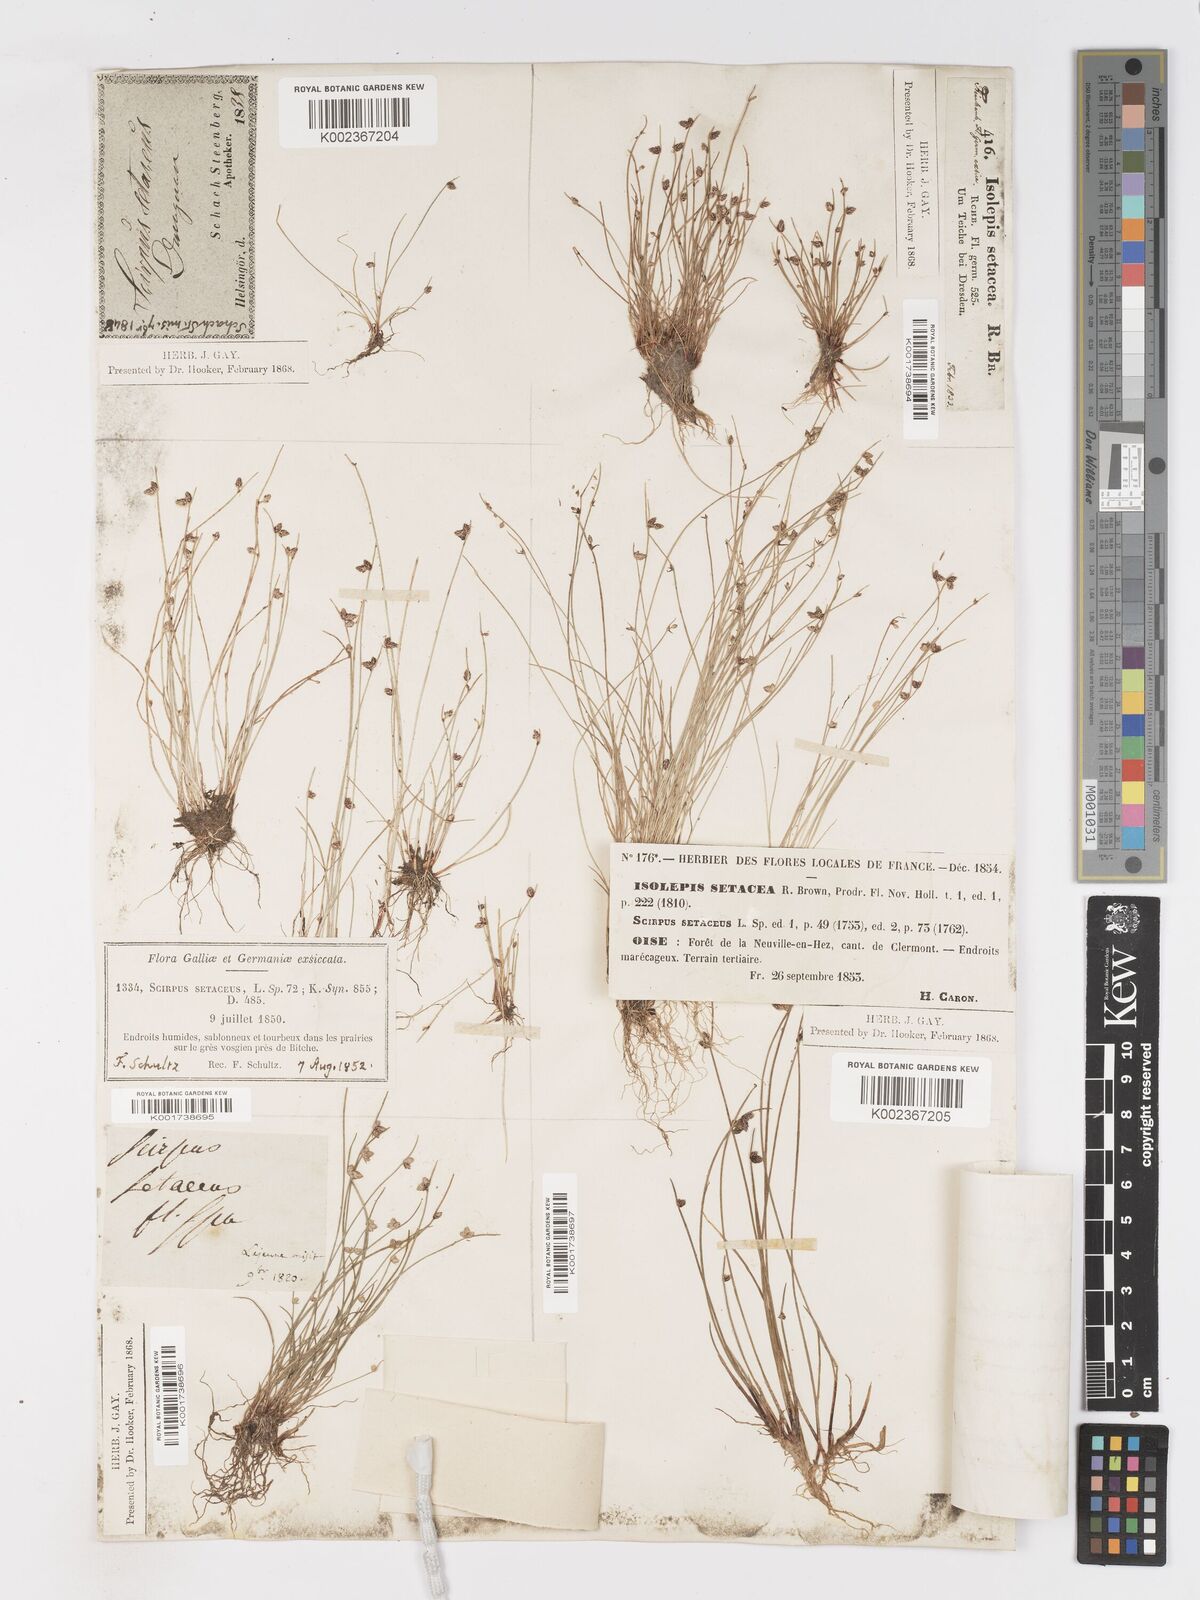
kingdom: Plantae
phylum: Tracheophyta
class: Liliopsida
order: Poales
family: Cyperaceae
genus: Isolepis
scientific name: Isolepis setacea
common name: Bristle club-rush
